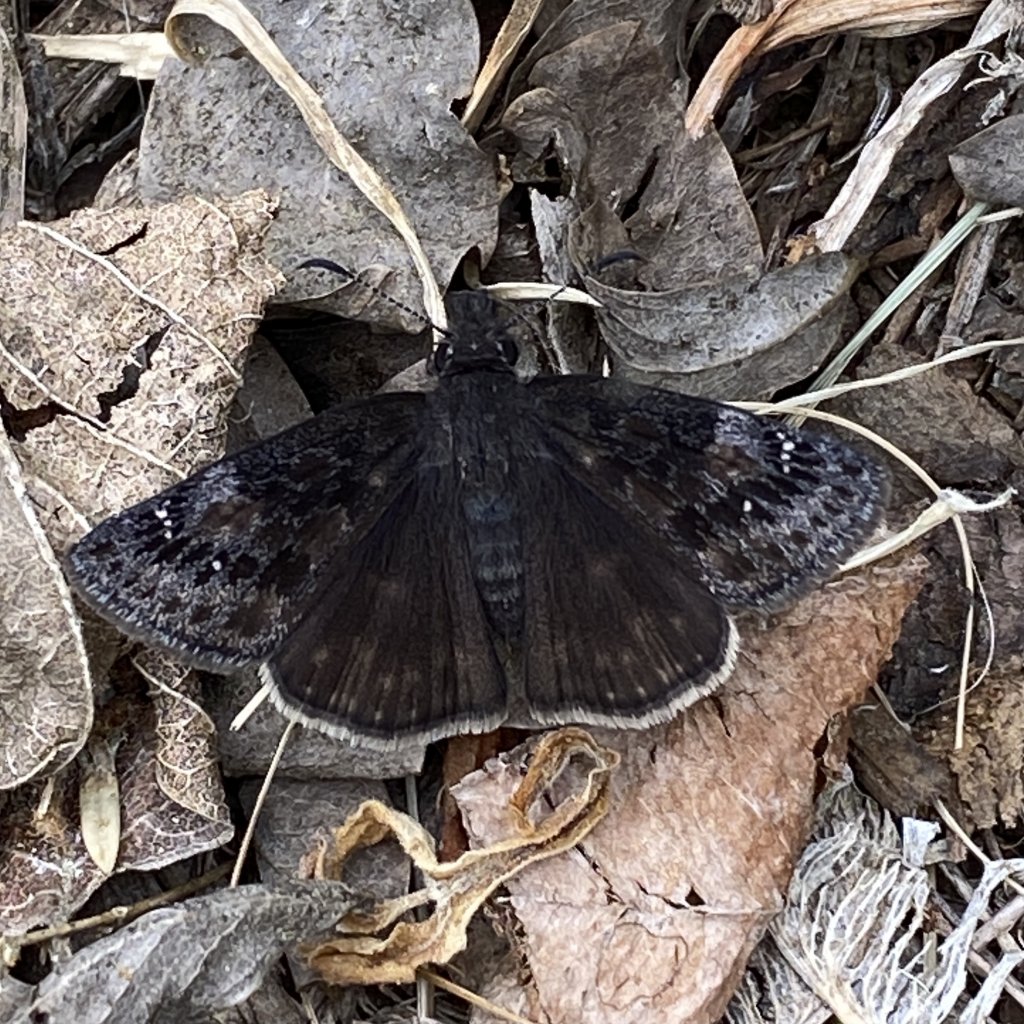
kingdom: Animalia
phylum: Arthropoda
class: Insecta
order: Lepidoptera
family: Hesperiidae
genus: Gesta
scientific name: Gesta
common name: Wild Indigo Duskywing
